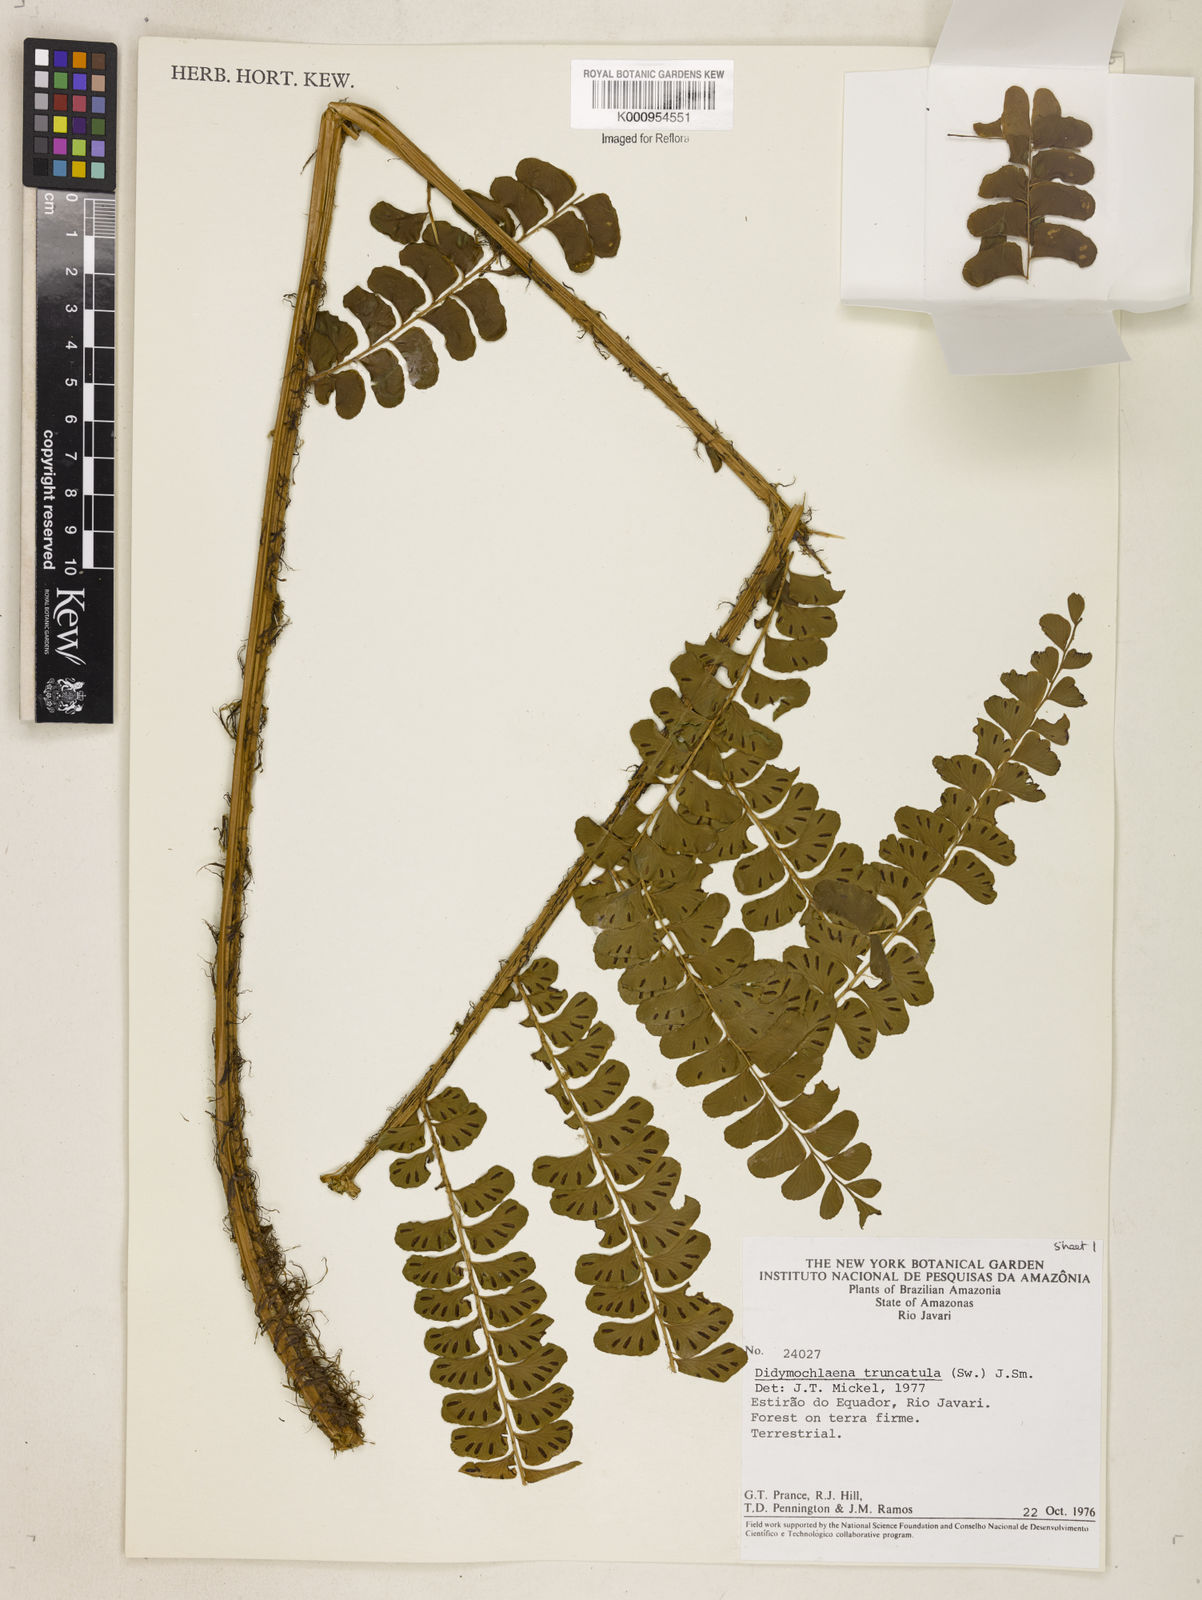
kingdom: Plantae
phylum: Tracheophyta
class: Polypodiopsida
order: Polypodiales
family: Didymochlaenaceae
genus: Didymochlaena
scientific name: Didymochlaena truncatula
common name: Mahogany fern
